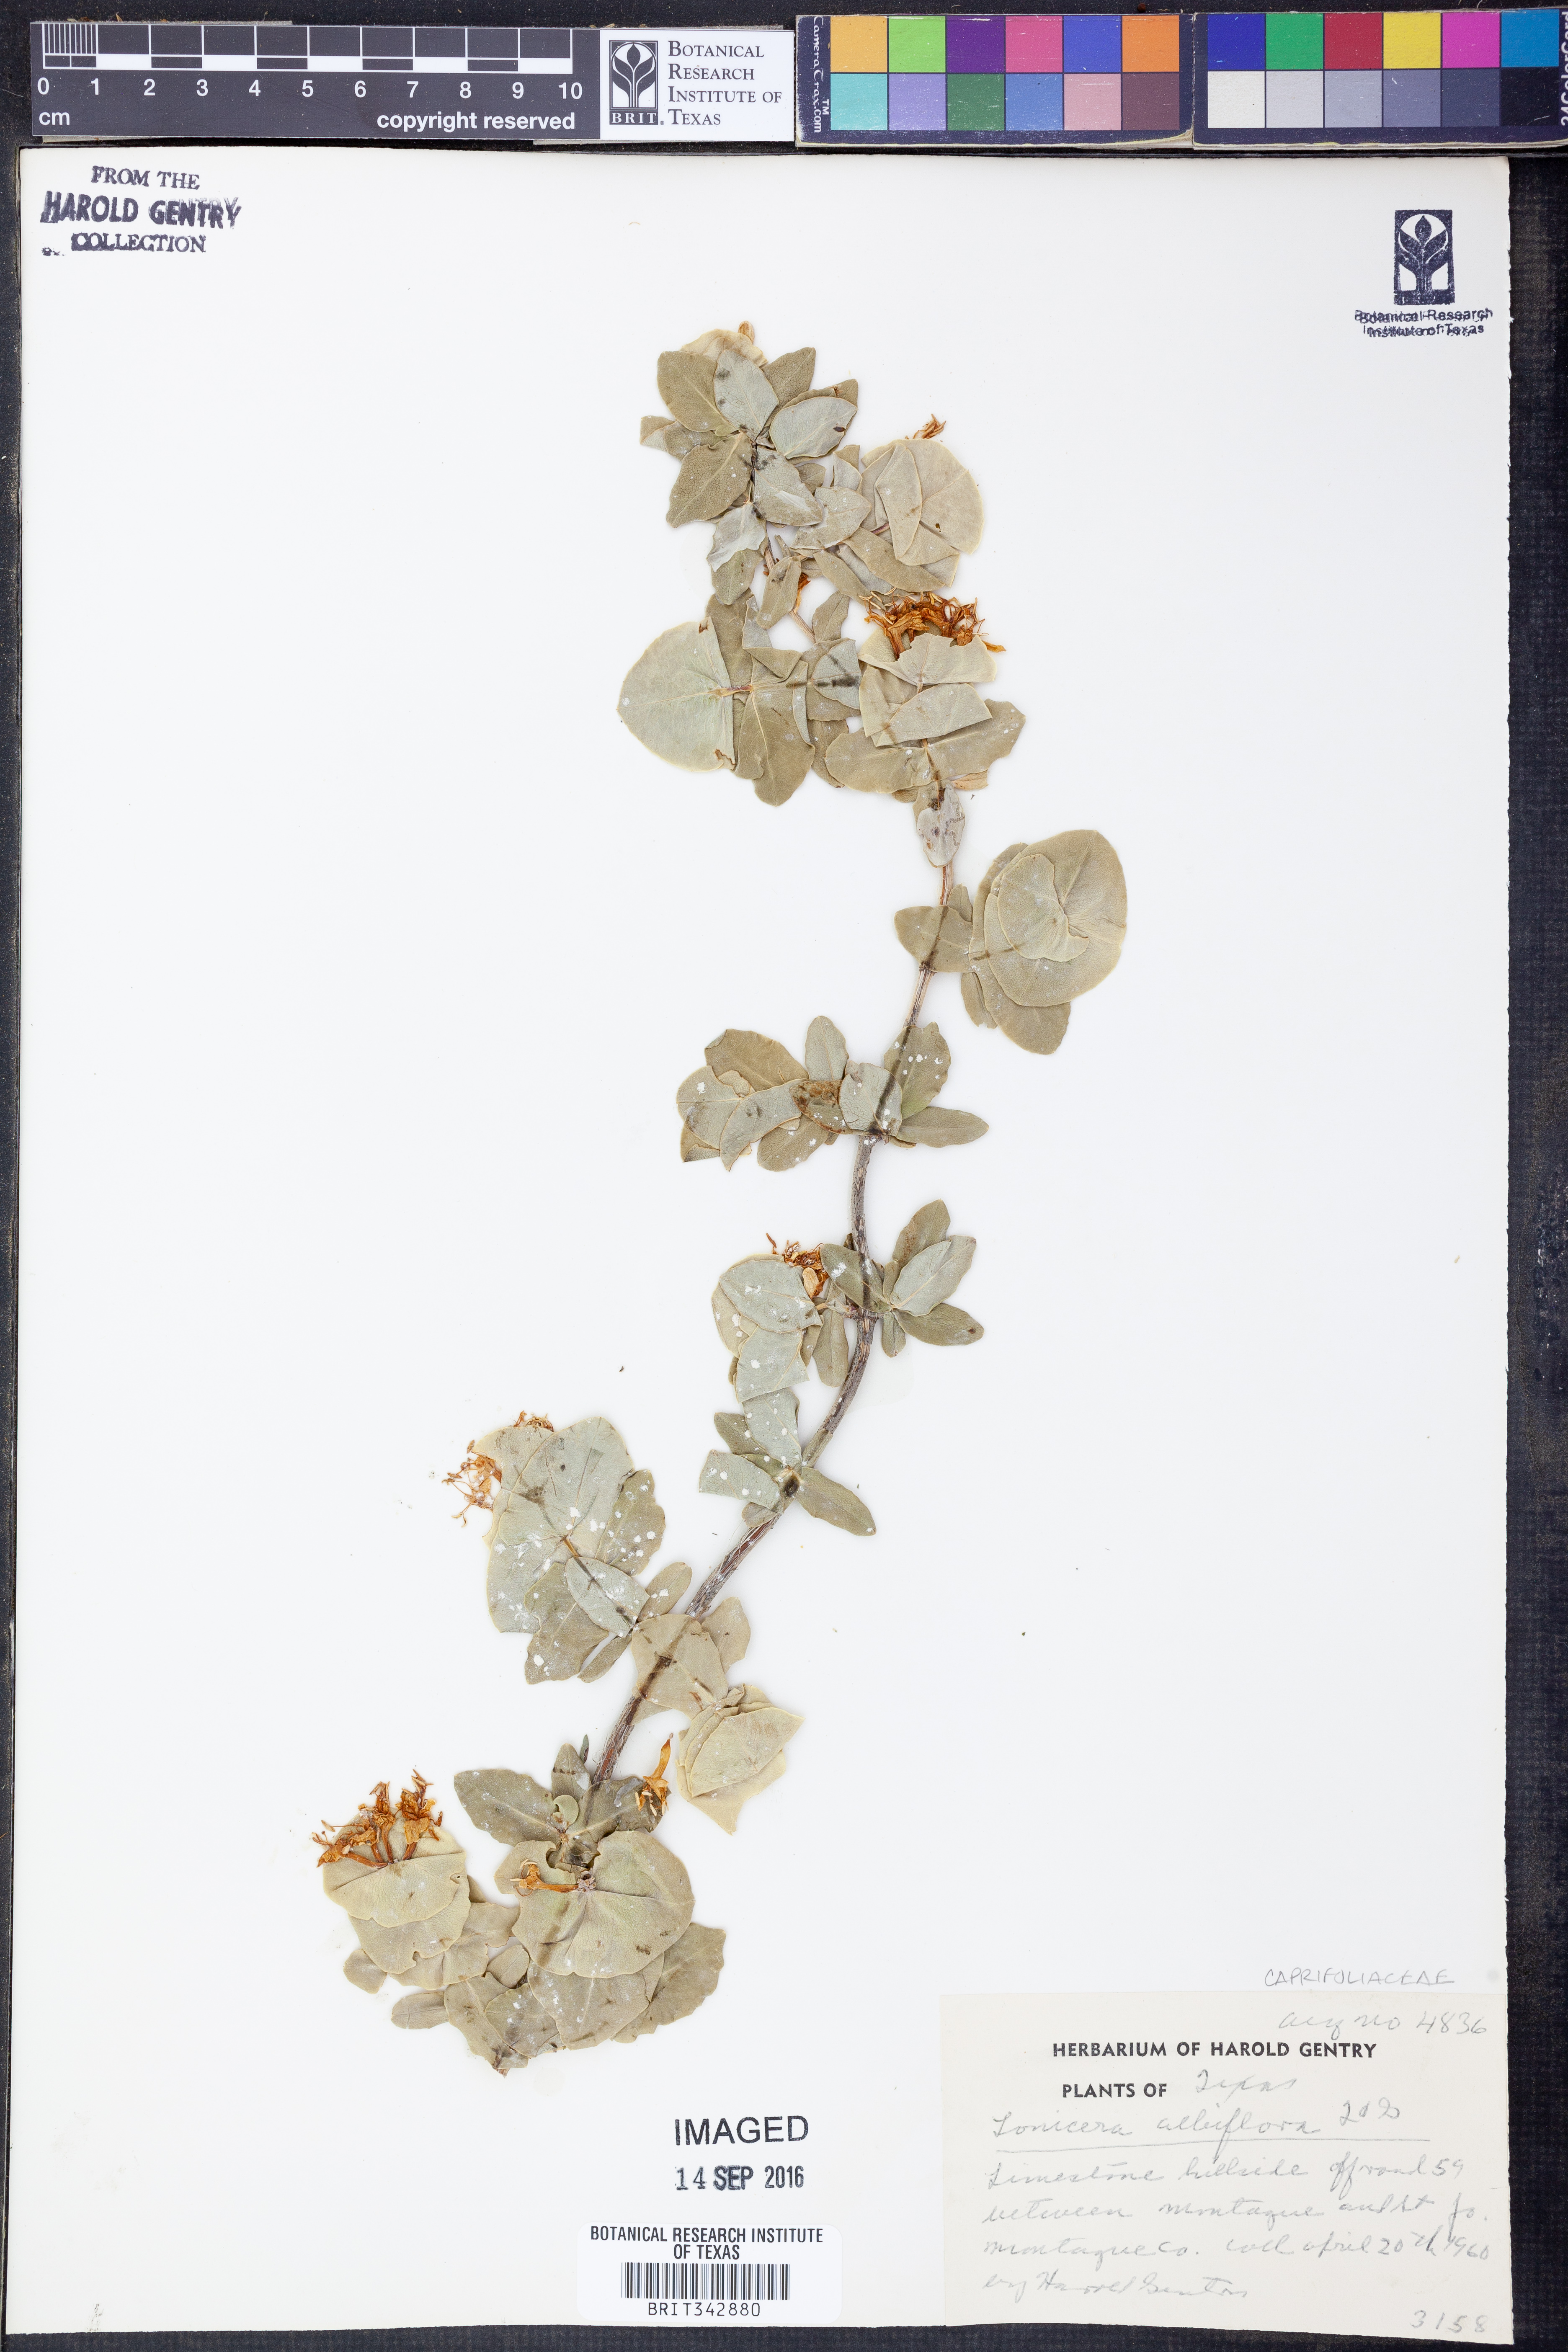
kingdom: Plantae
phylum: Tracheophyta
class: Magnoliopsida
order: Dipsacales
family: Caprifoliaceae
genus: Lonicera
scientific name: Lonicera albiflora
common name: White honeysuckle
